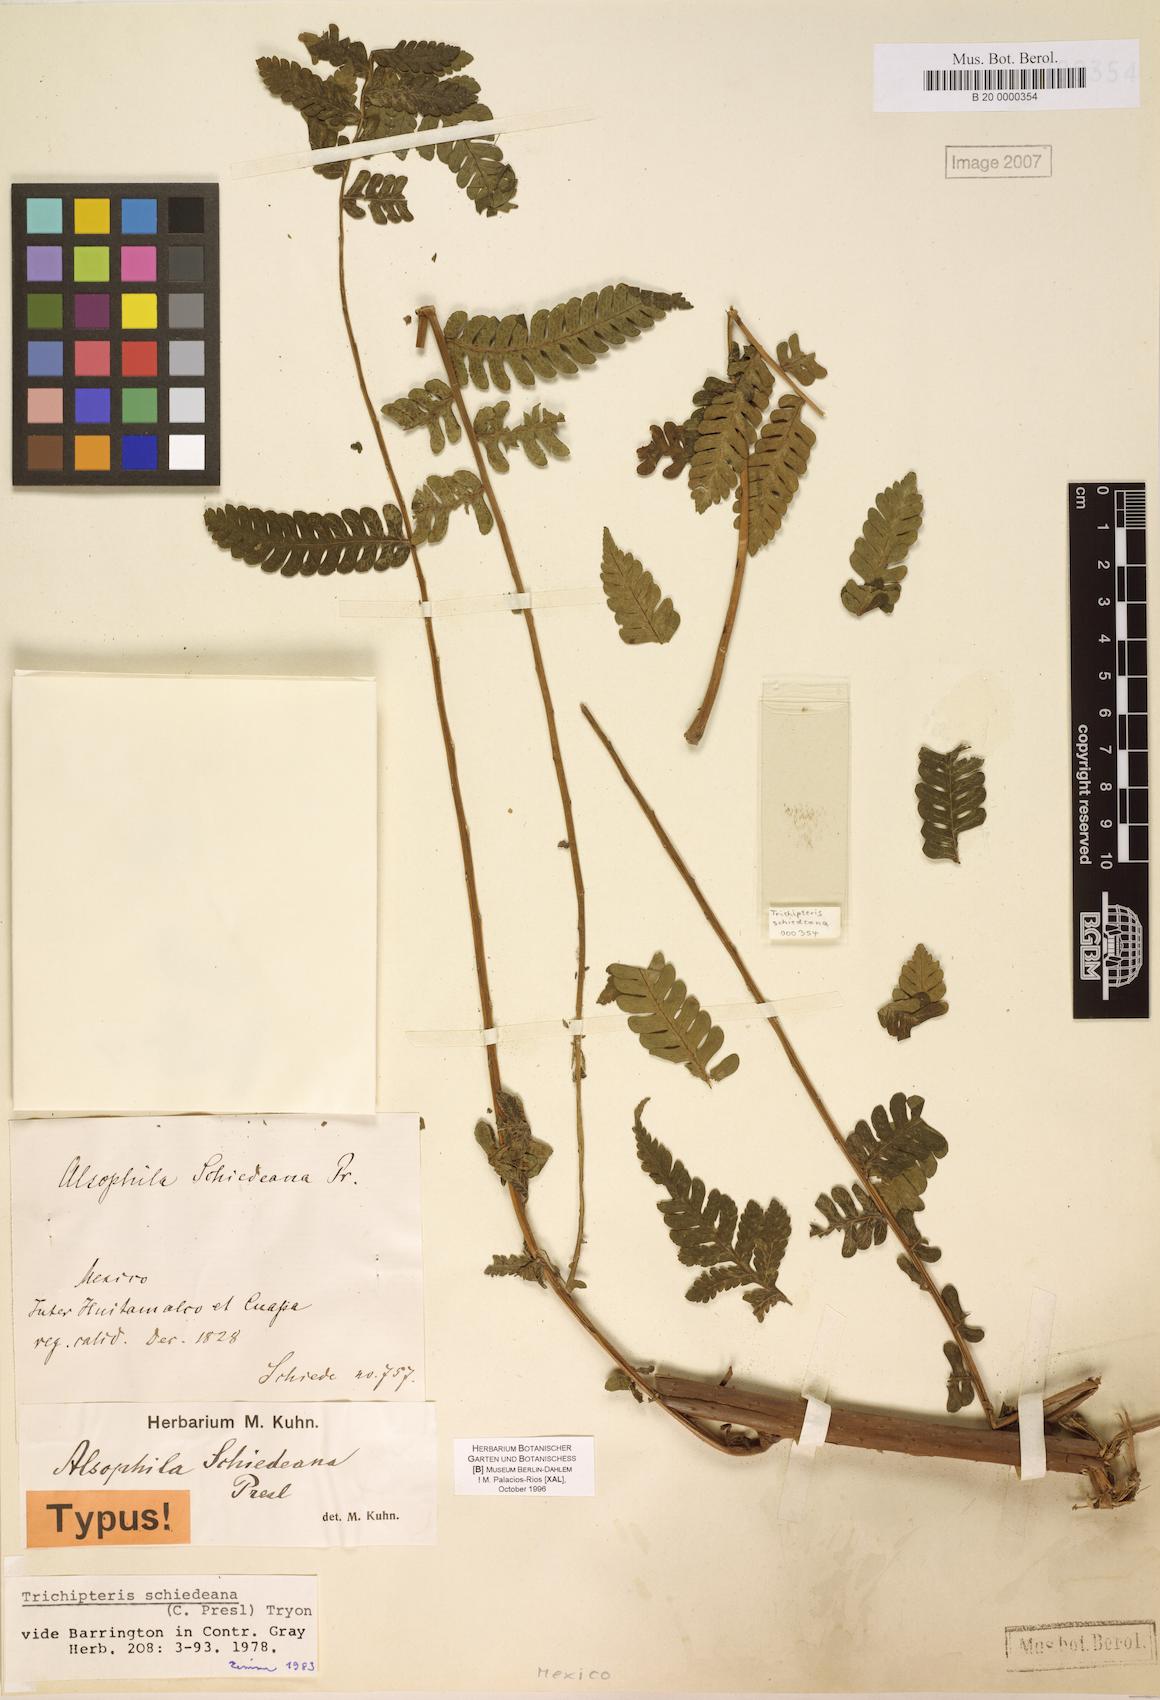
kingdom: Plantae
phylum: Tracheophyta
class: Polypodiopsida
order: Cyatheales
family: Cyatheaceae
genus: Cyathea
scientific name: Cyathea schiedeana
